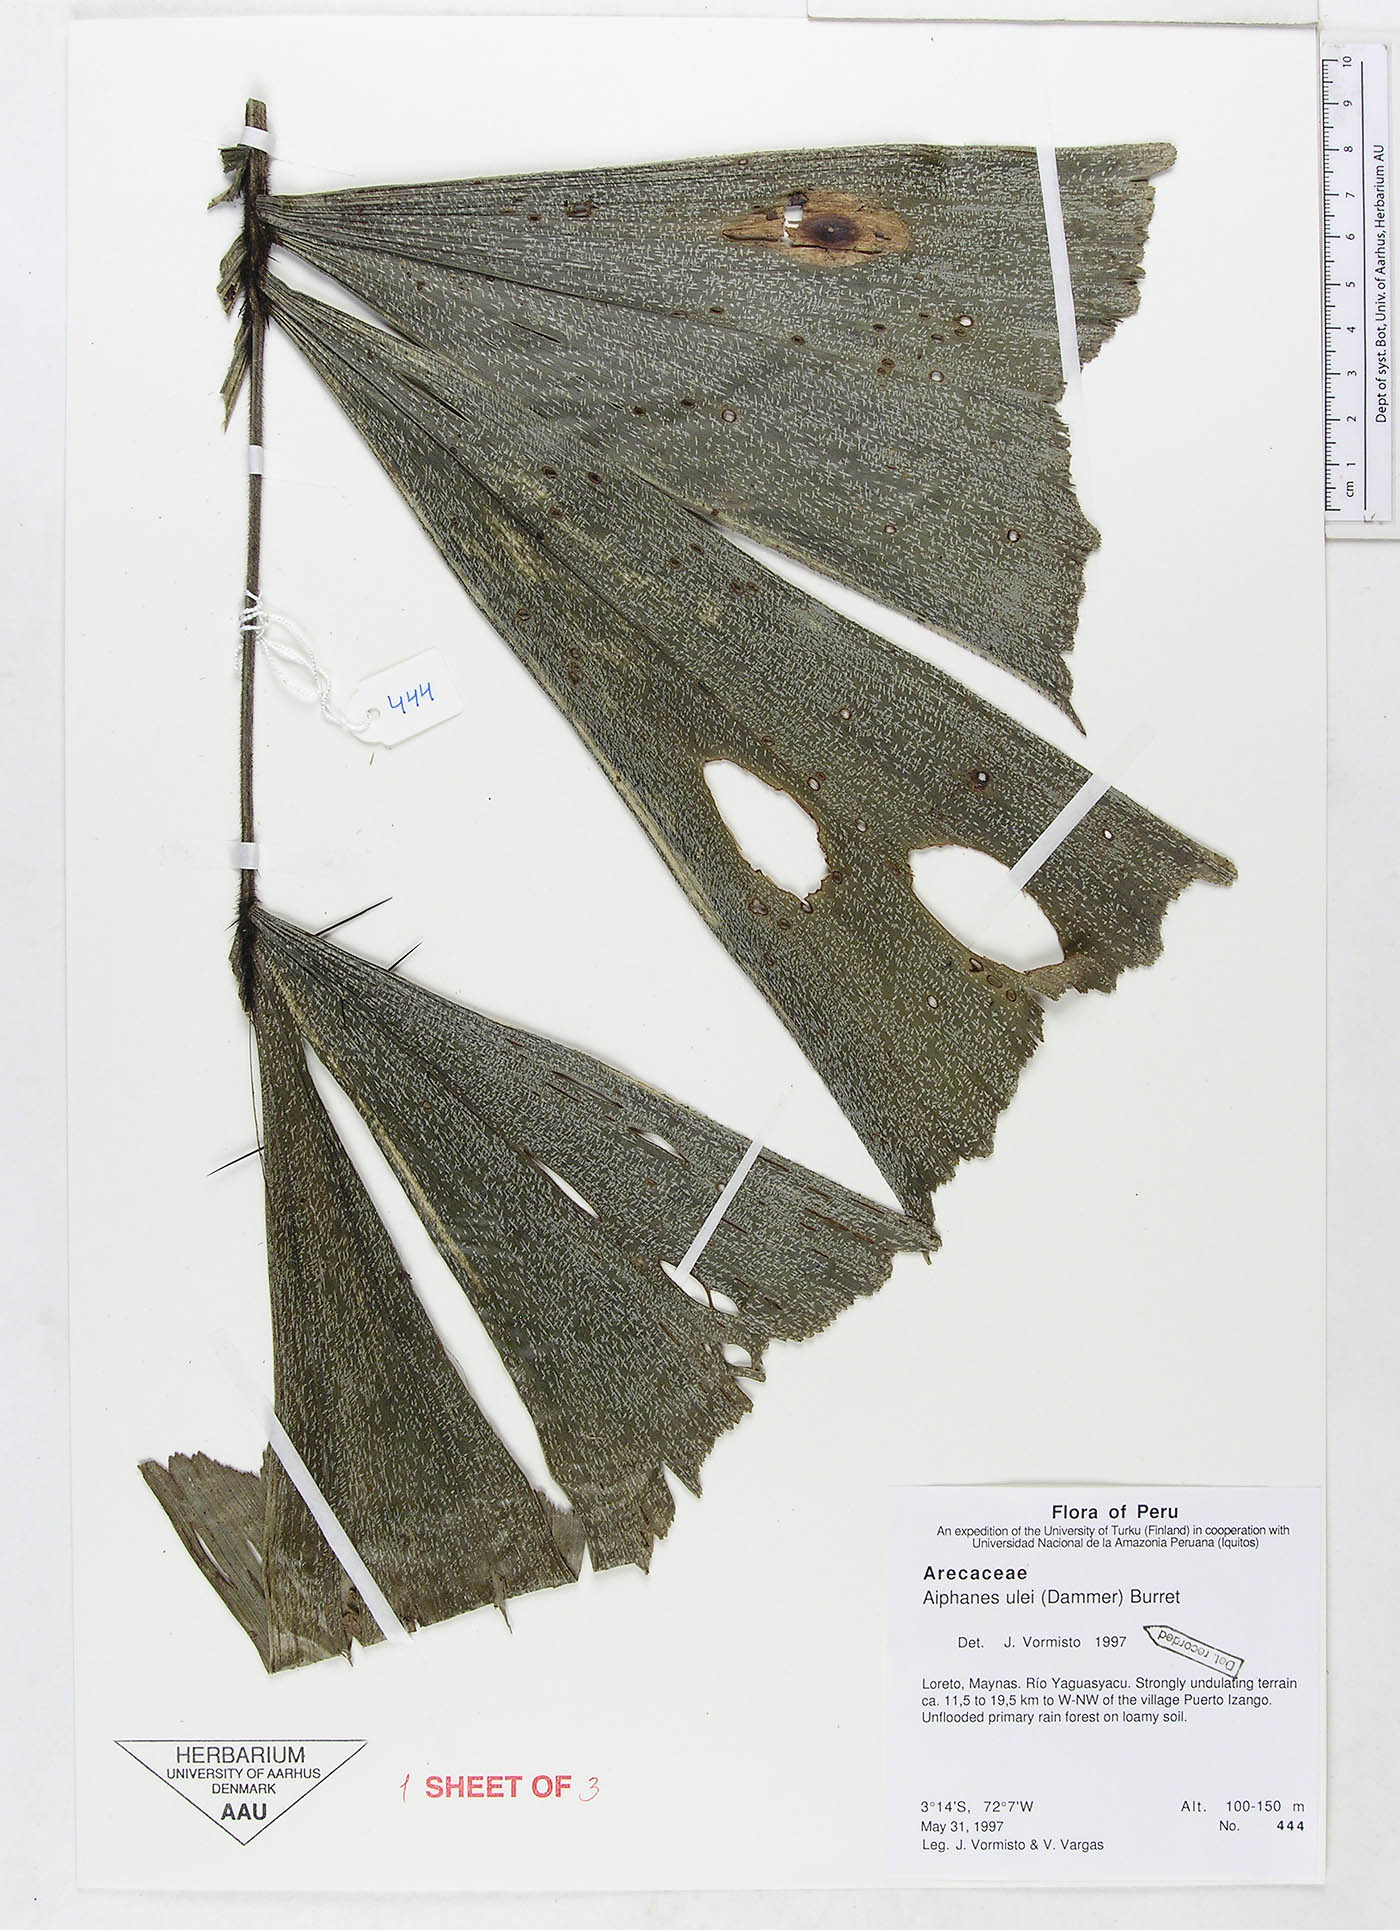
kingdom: Plantae
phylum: Tracheophyta
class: Liliopsida
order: Arecales
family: Arecaceae
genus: Aiphanes
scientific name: Aiphanes ulei
